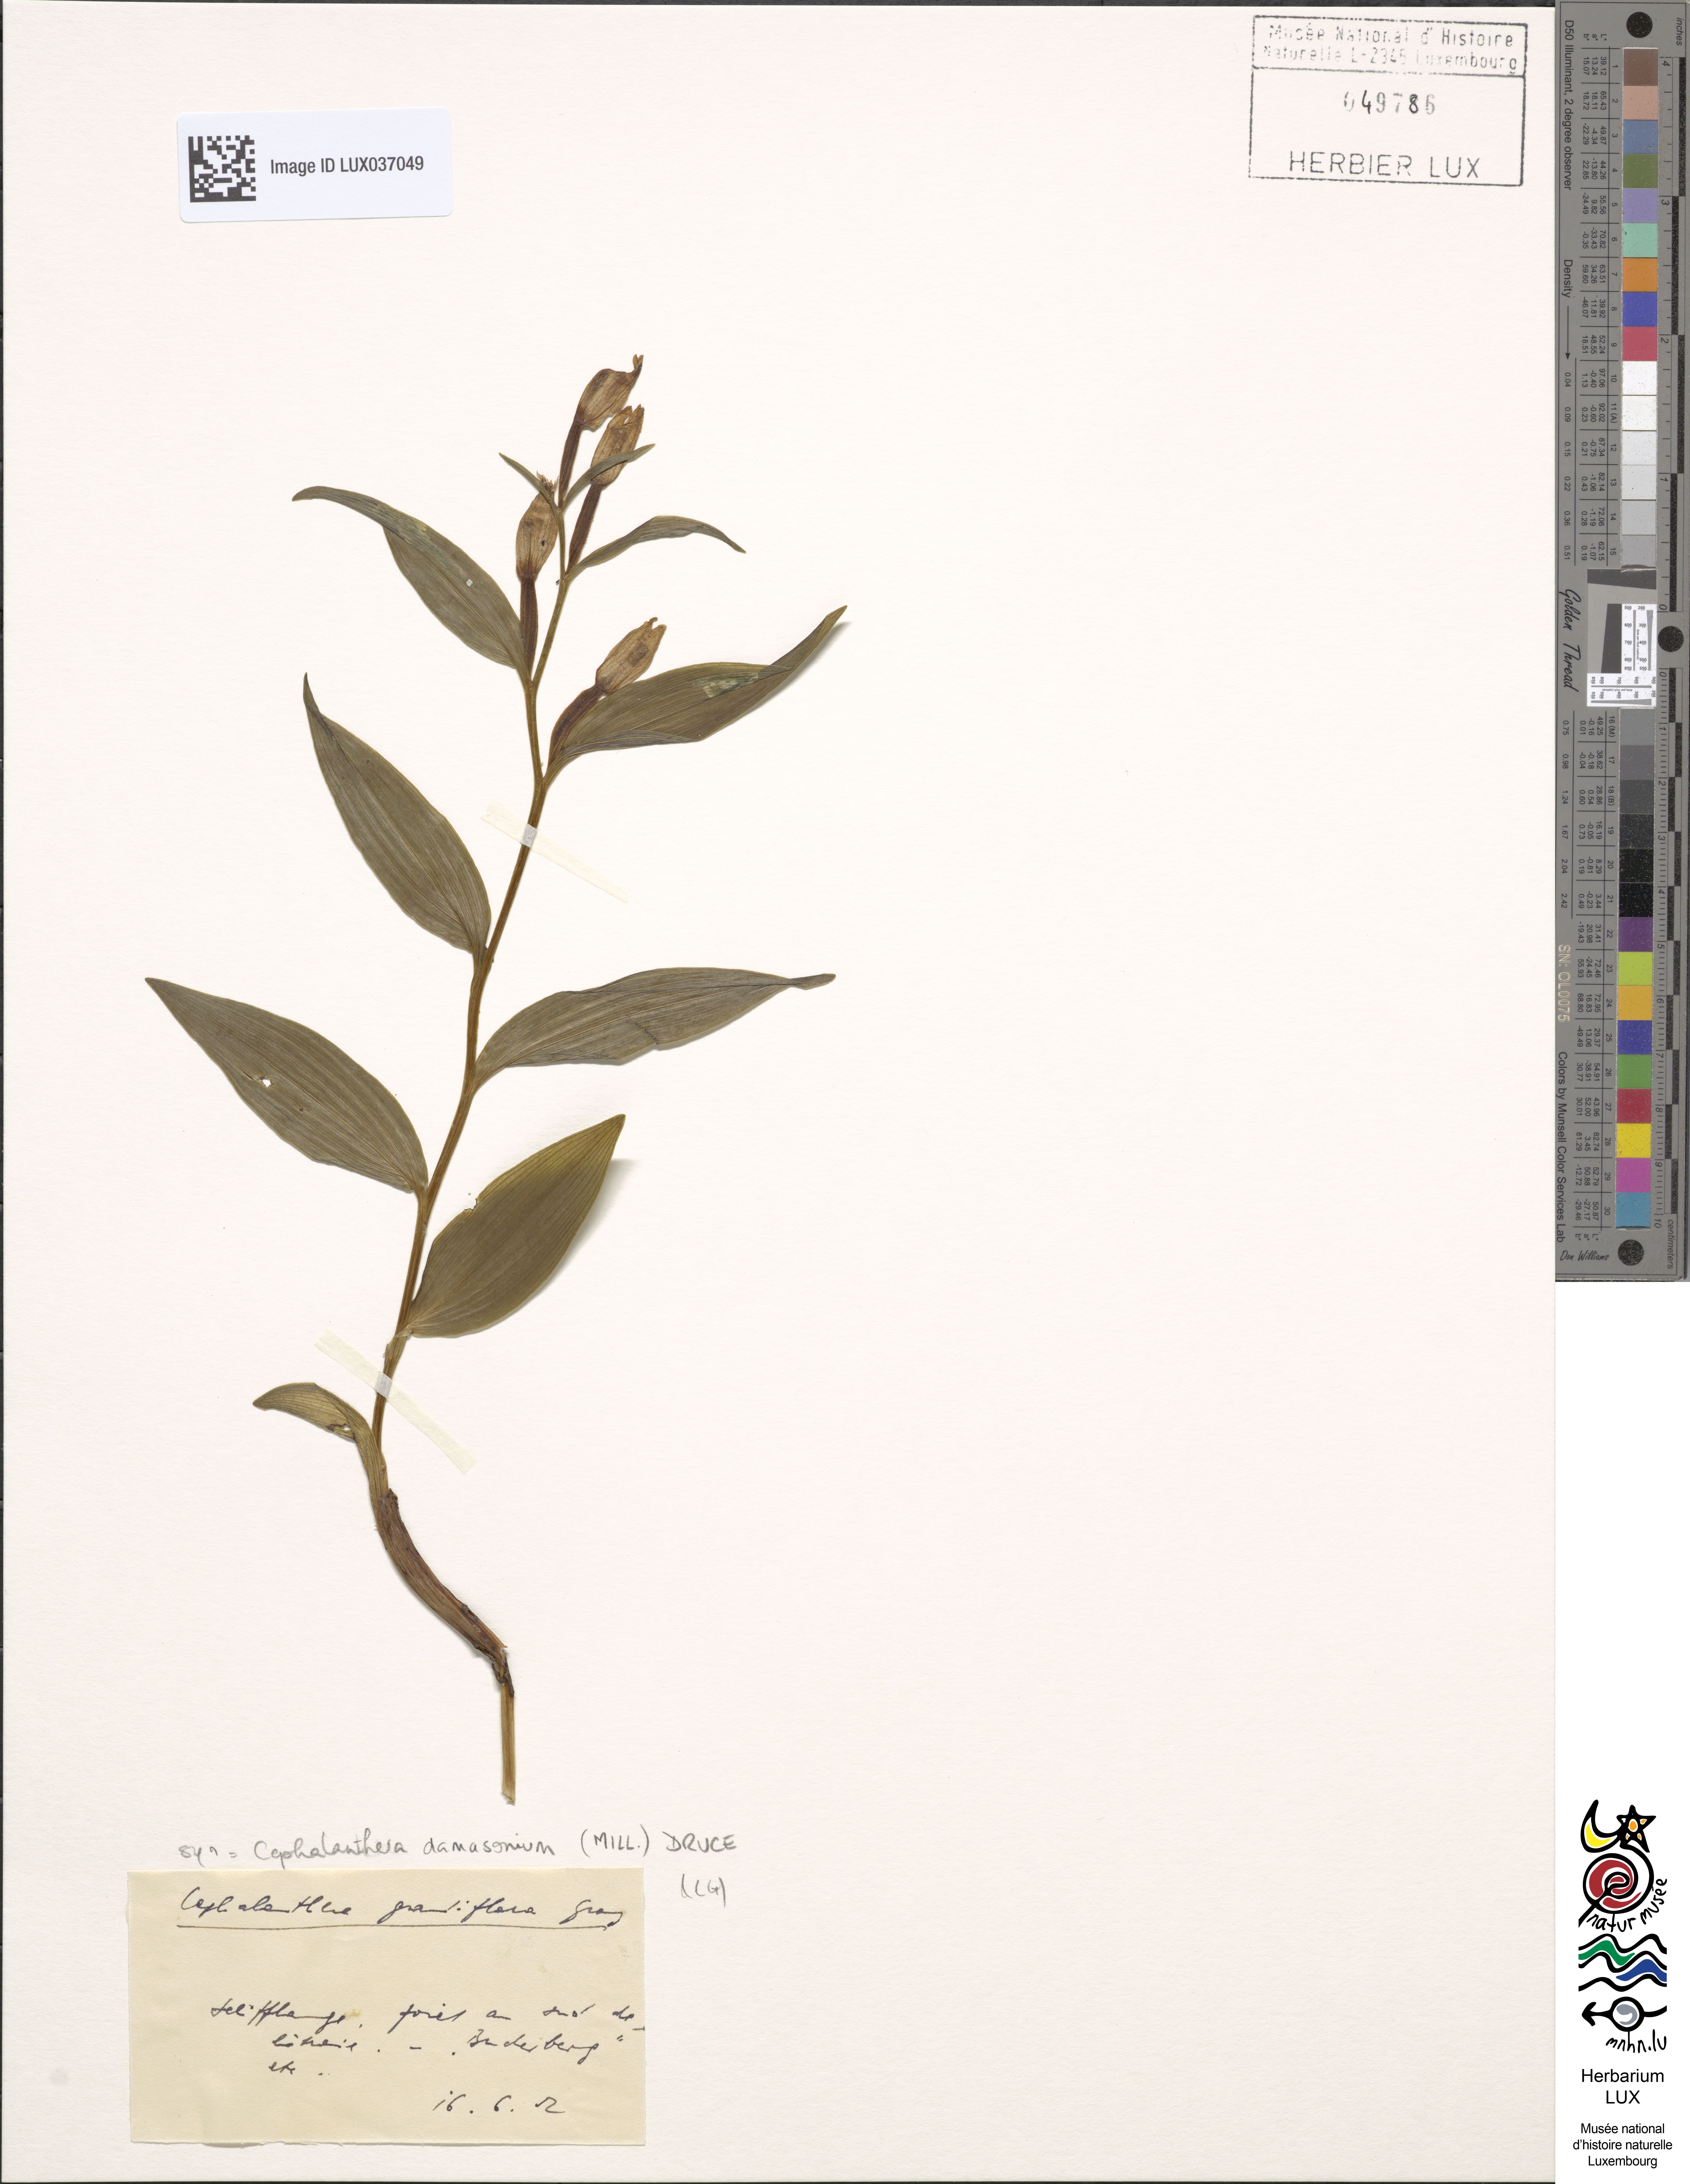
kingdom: Plantae
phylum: Tracheophyta
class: Liliopsida
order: Asparagales
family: Orchidaceae
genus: Cephalanthera
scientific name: Cephalanthera damasonium
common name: White helleborine
